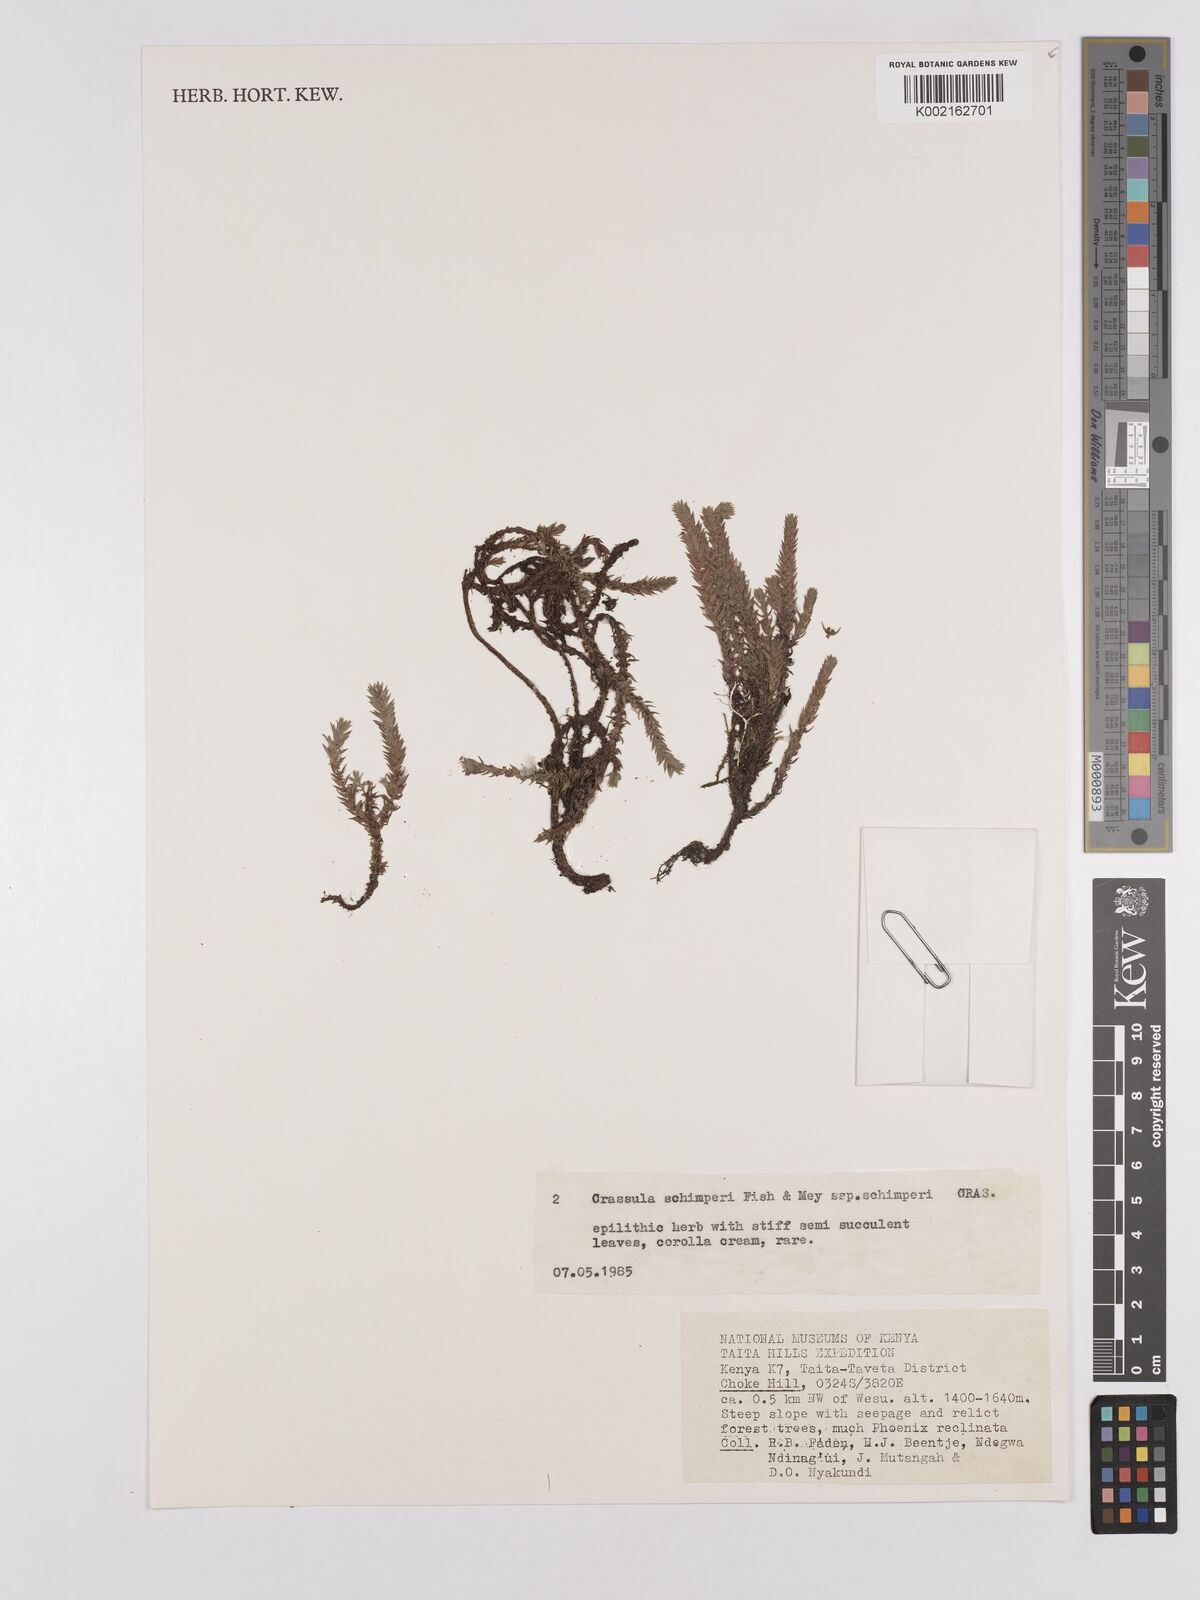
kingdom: Plantae
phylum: Tracheophyta
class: Magnoliopsida
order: Saxifragales
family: Crassulaceae
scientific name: Crassulaceae
